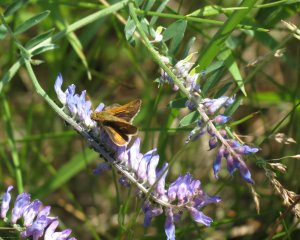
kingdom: Animalia
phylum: Arthropoda
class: Insecta
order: Lepidoptera
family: Hesperiidae
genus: Polites
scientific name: Polites coras
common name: Peck's Skipper
